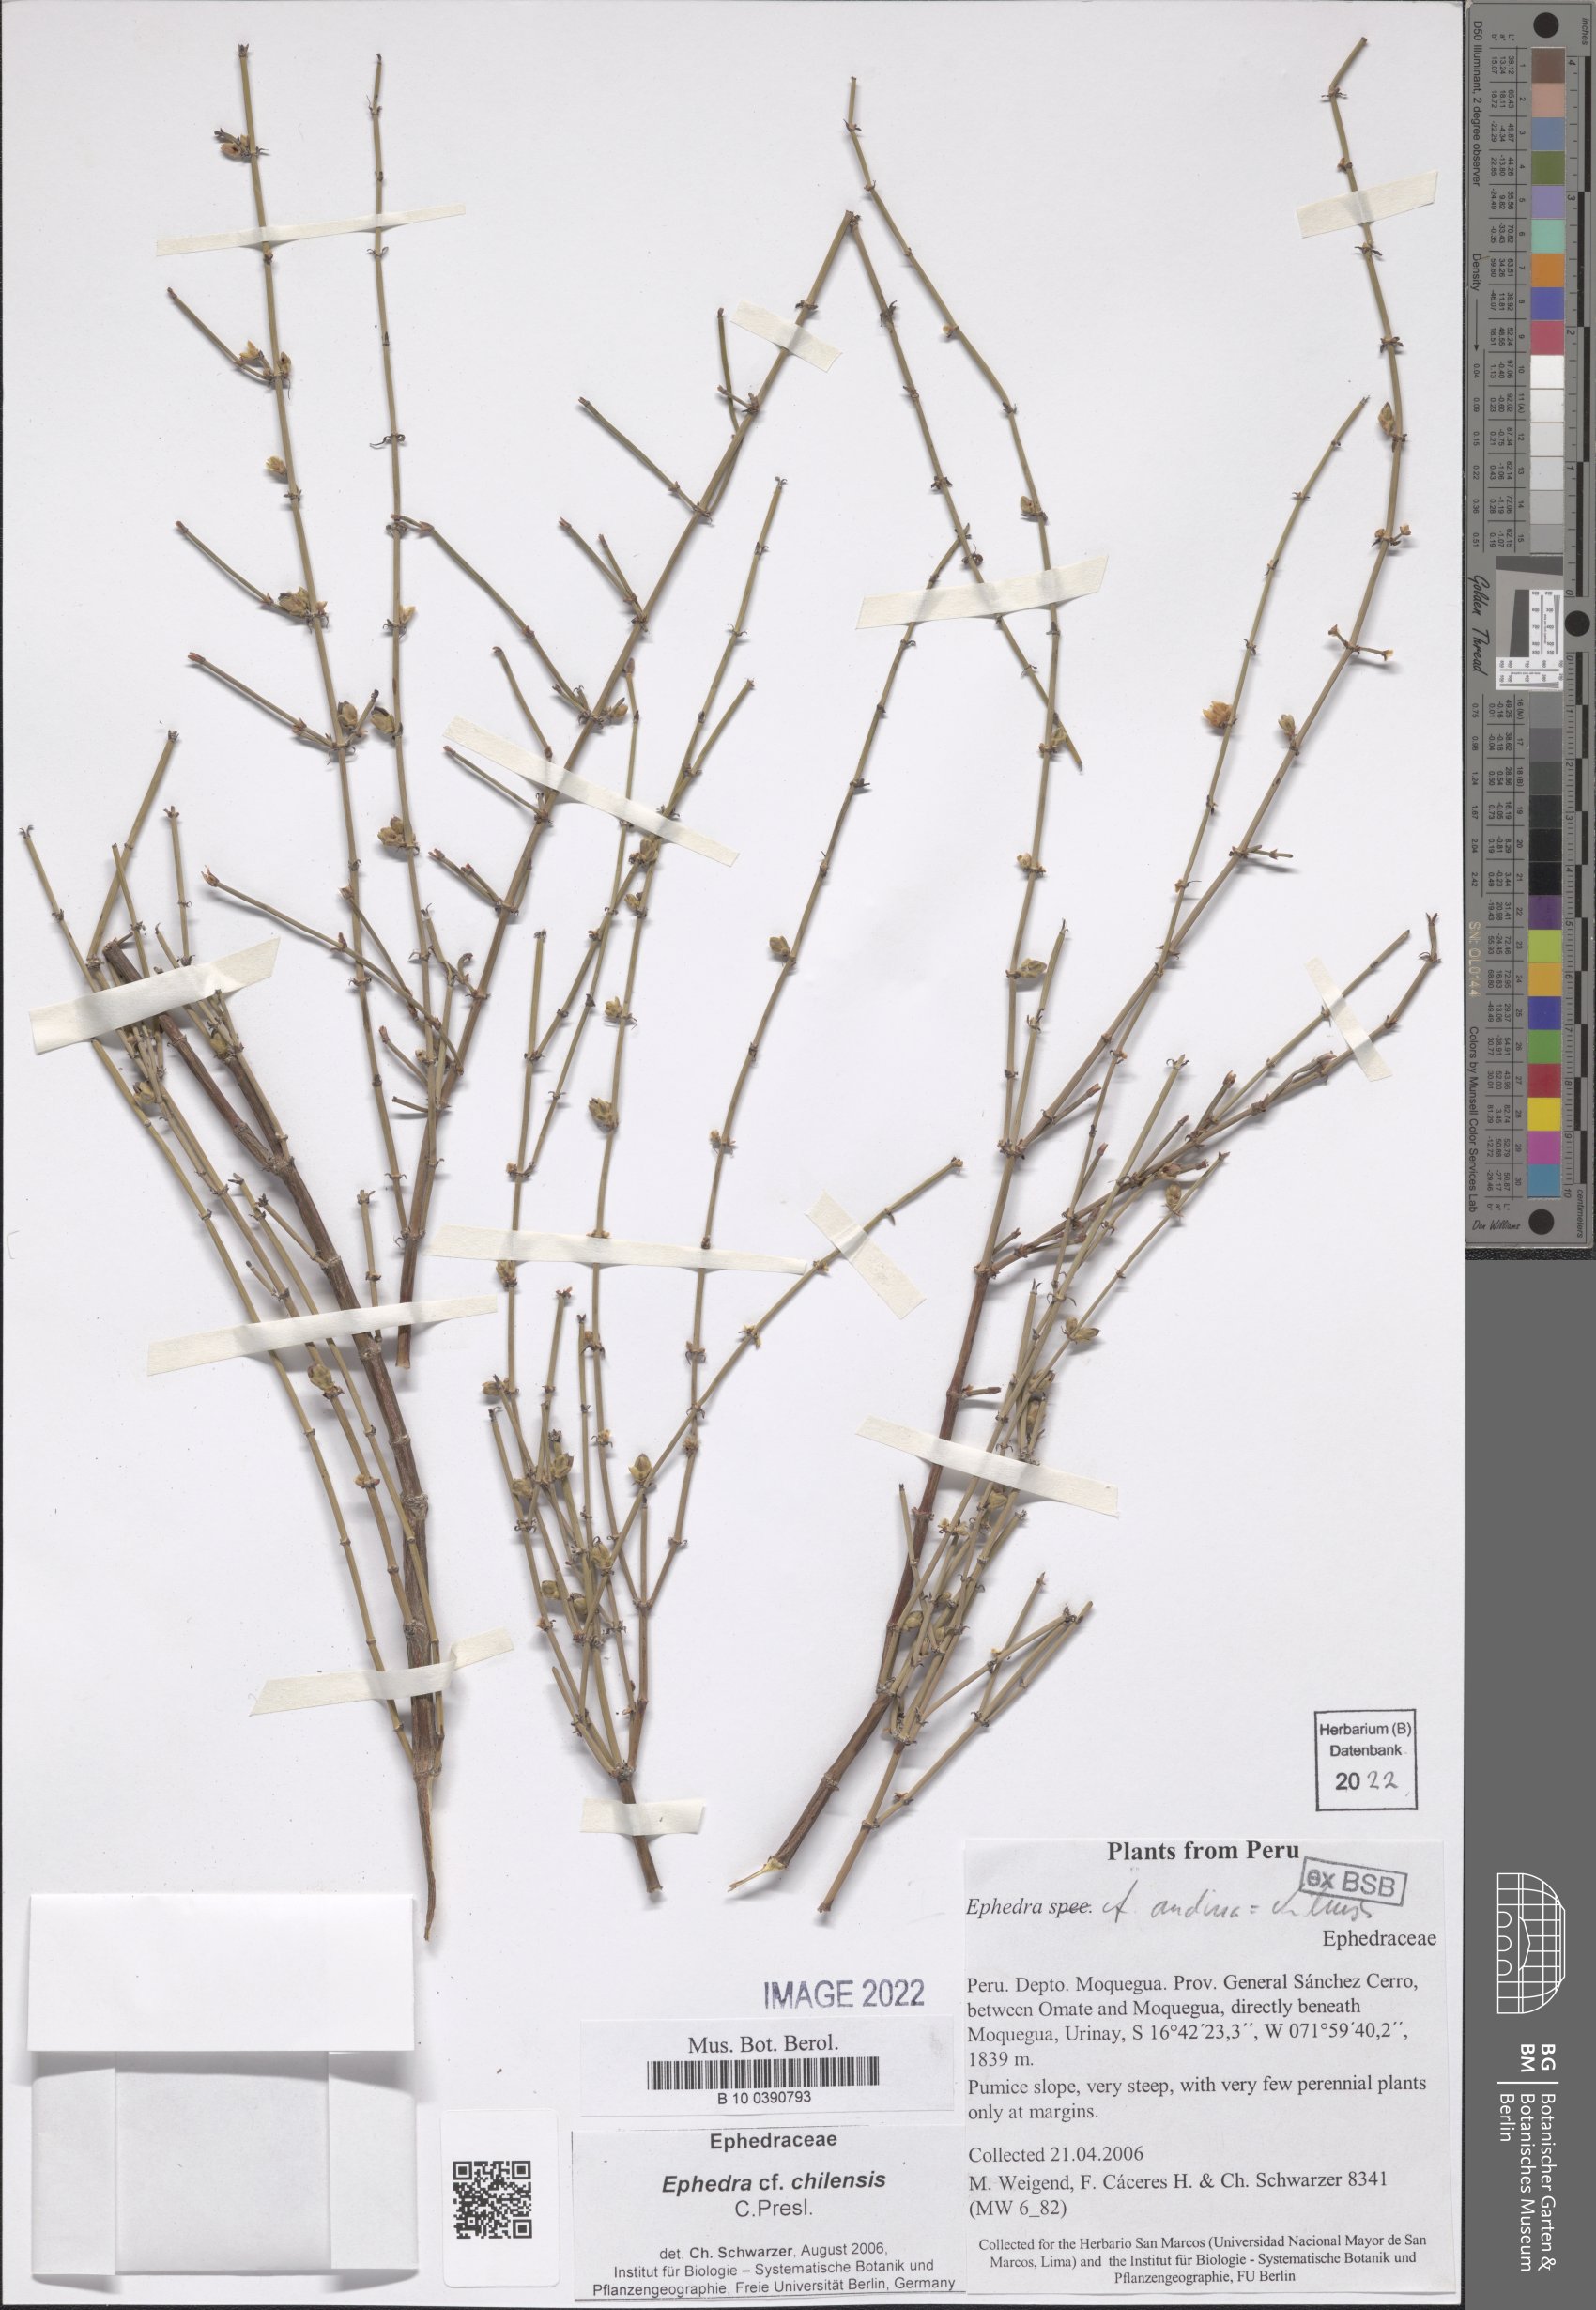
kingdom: Plantae
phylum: Tracheophyta
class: Gnetopsida
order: Ephedrales
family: Ephedraceae
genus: Ephedra
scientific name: Ephedra chilensis
